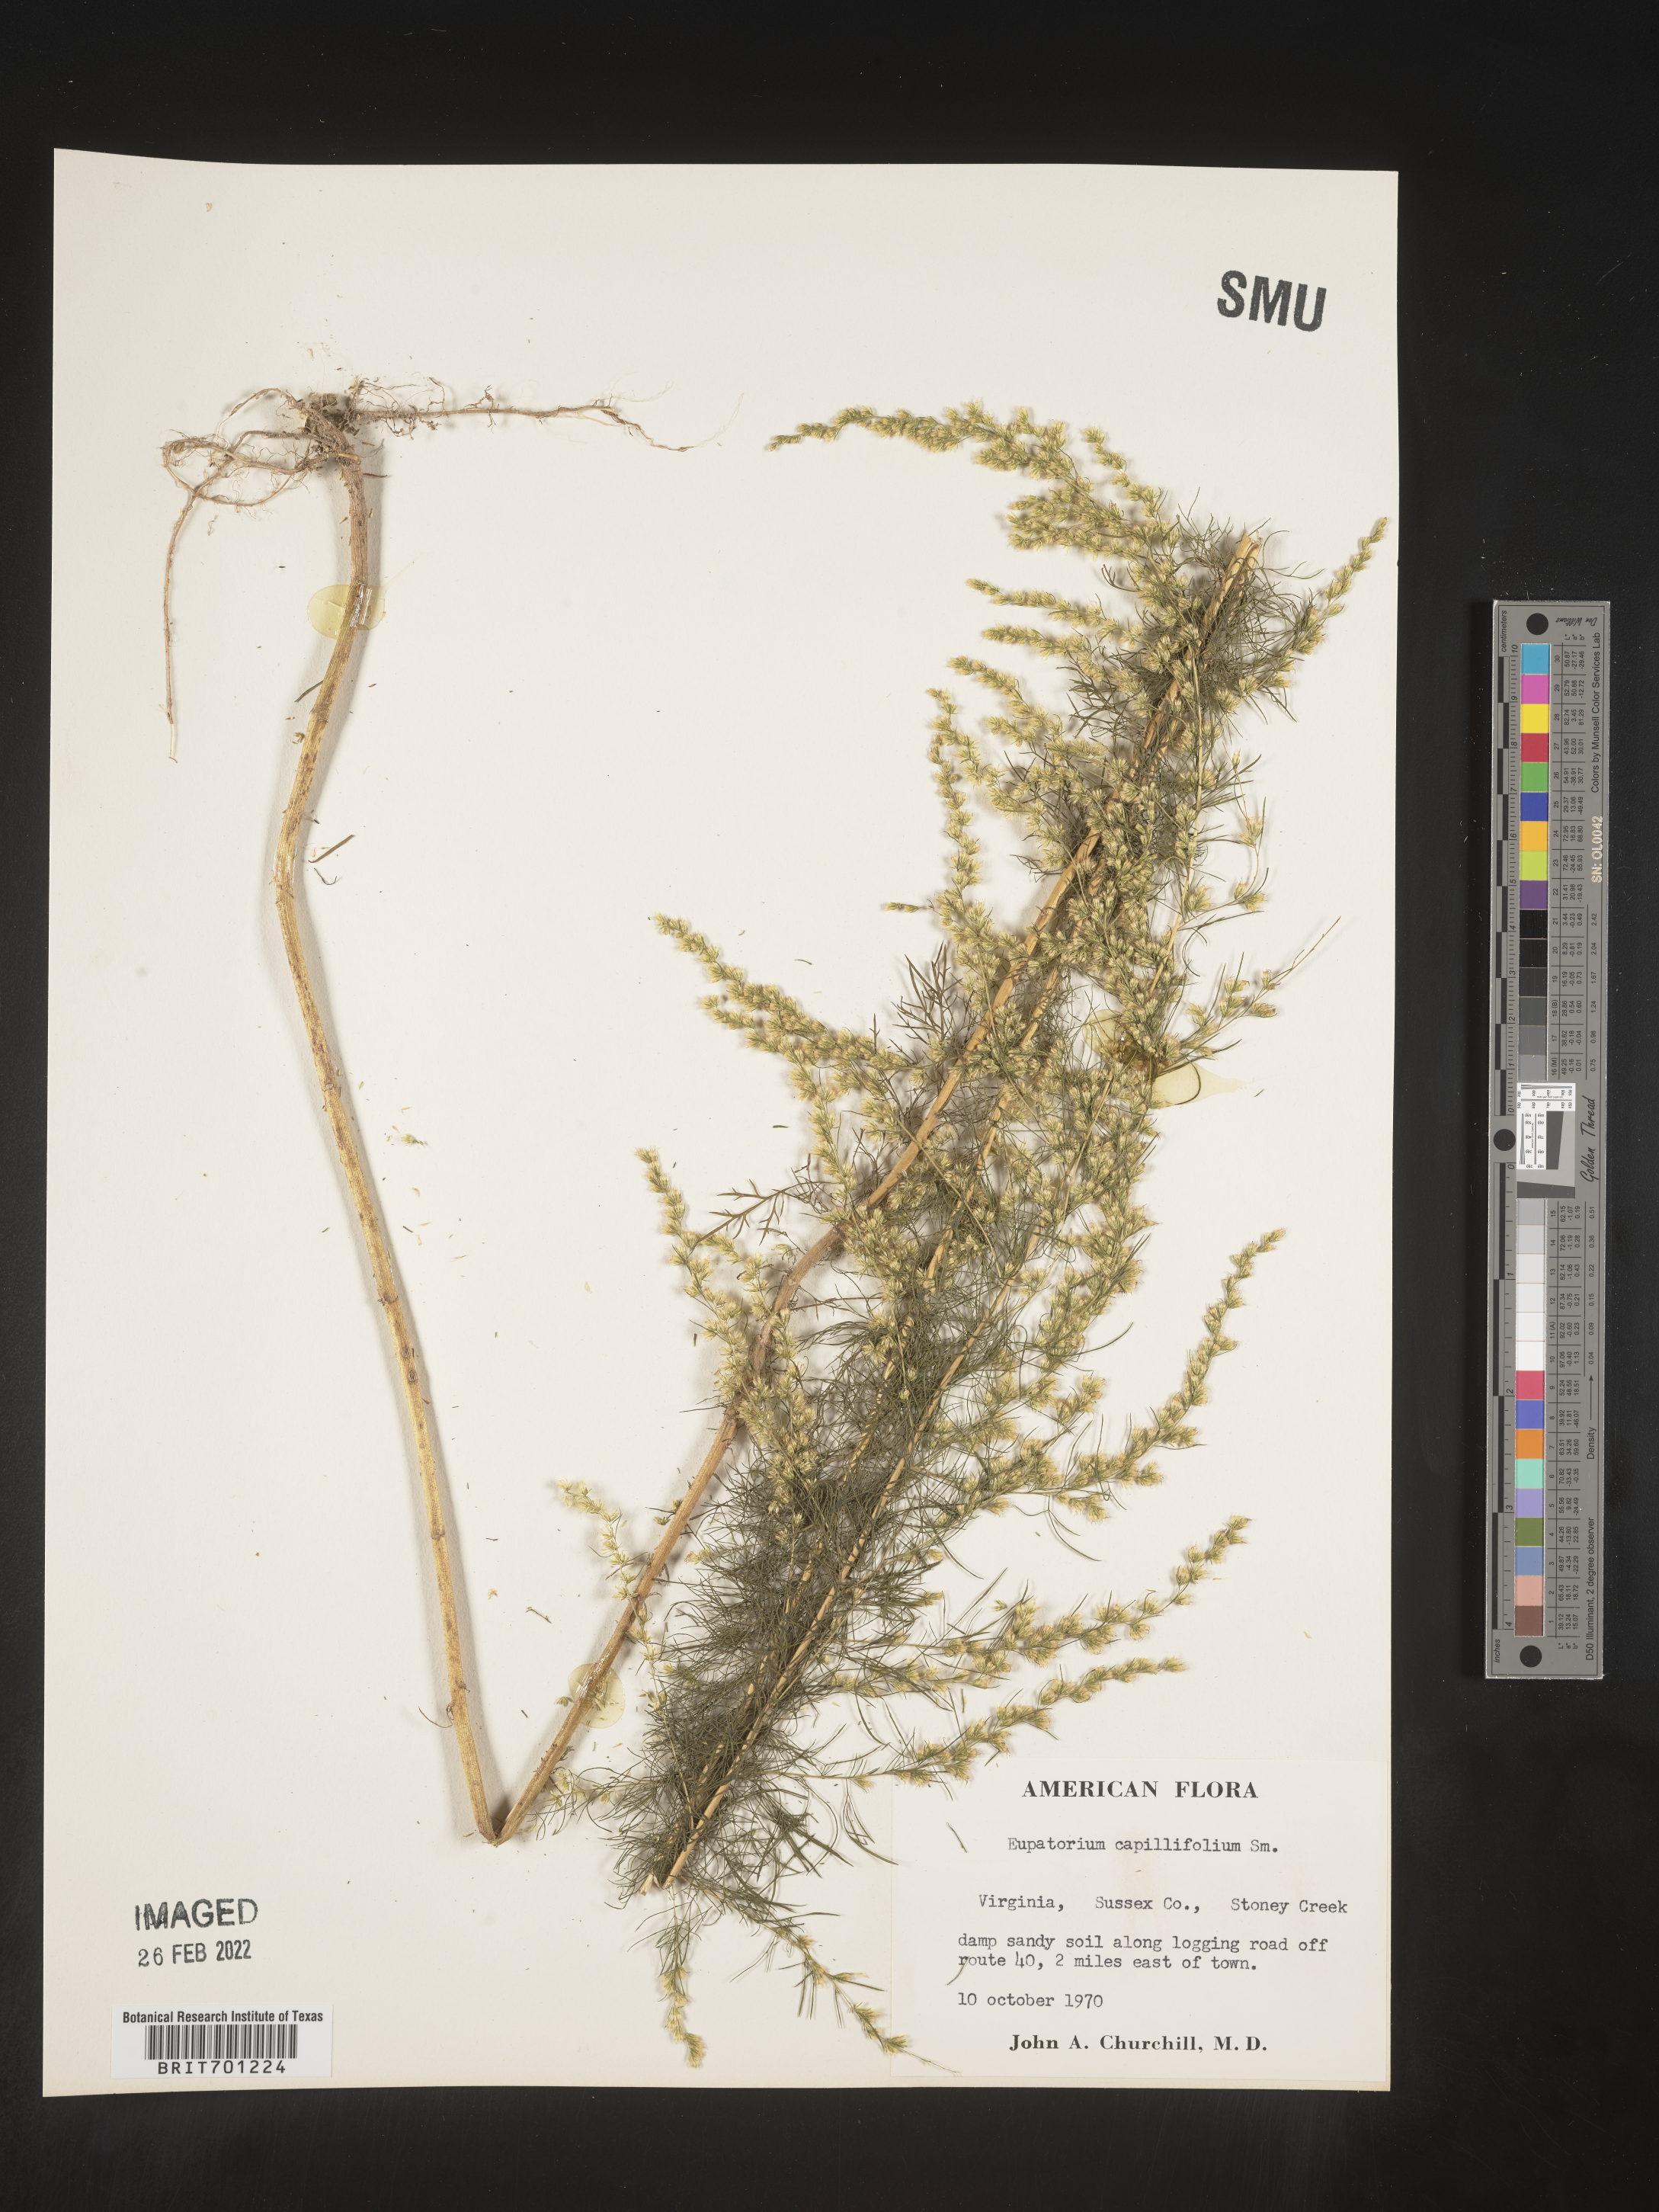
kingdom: Plantae
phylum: Tracheophyta
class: Magnoliopsida
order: Asterales
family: Asteraceae
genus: Eupatorium
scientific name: Eupatorium capillifolium
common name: Dog-fennel
